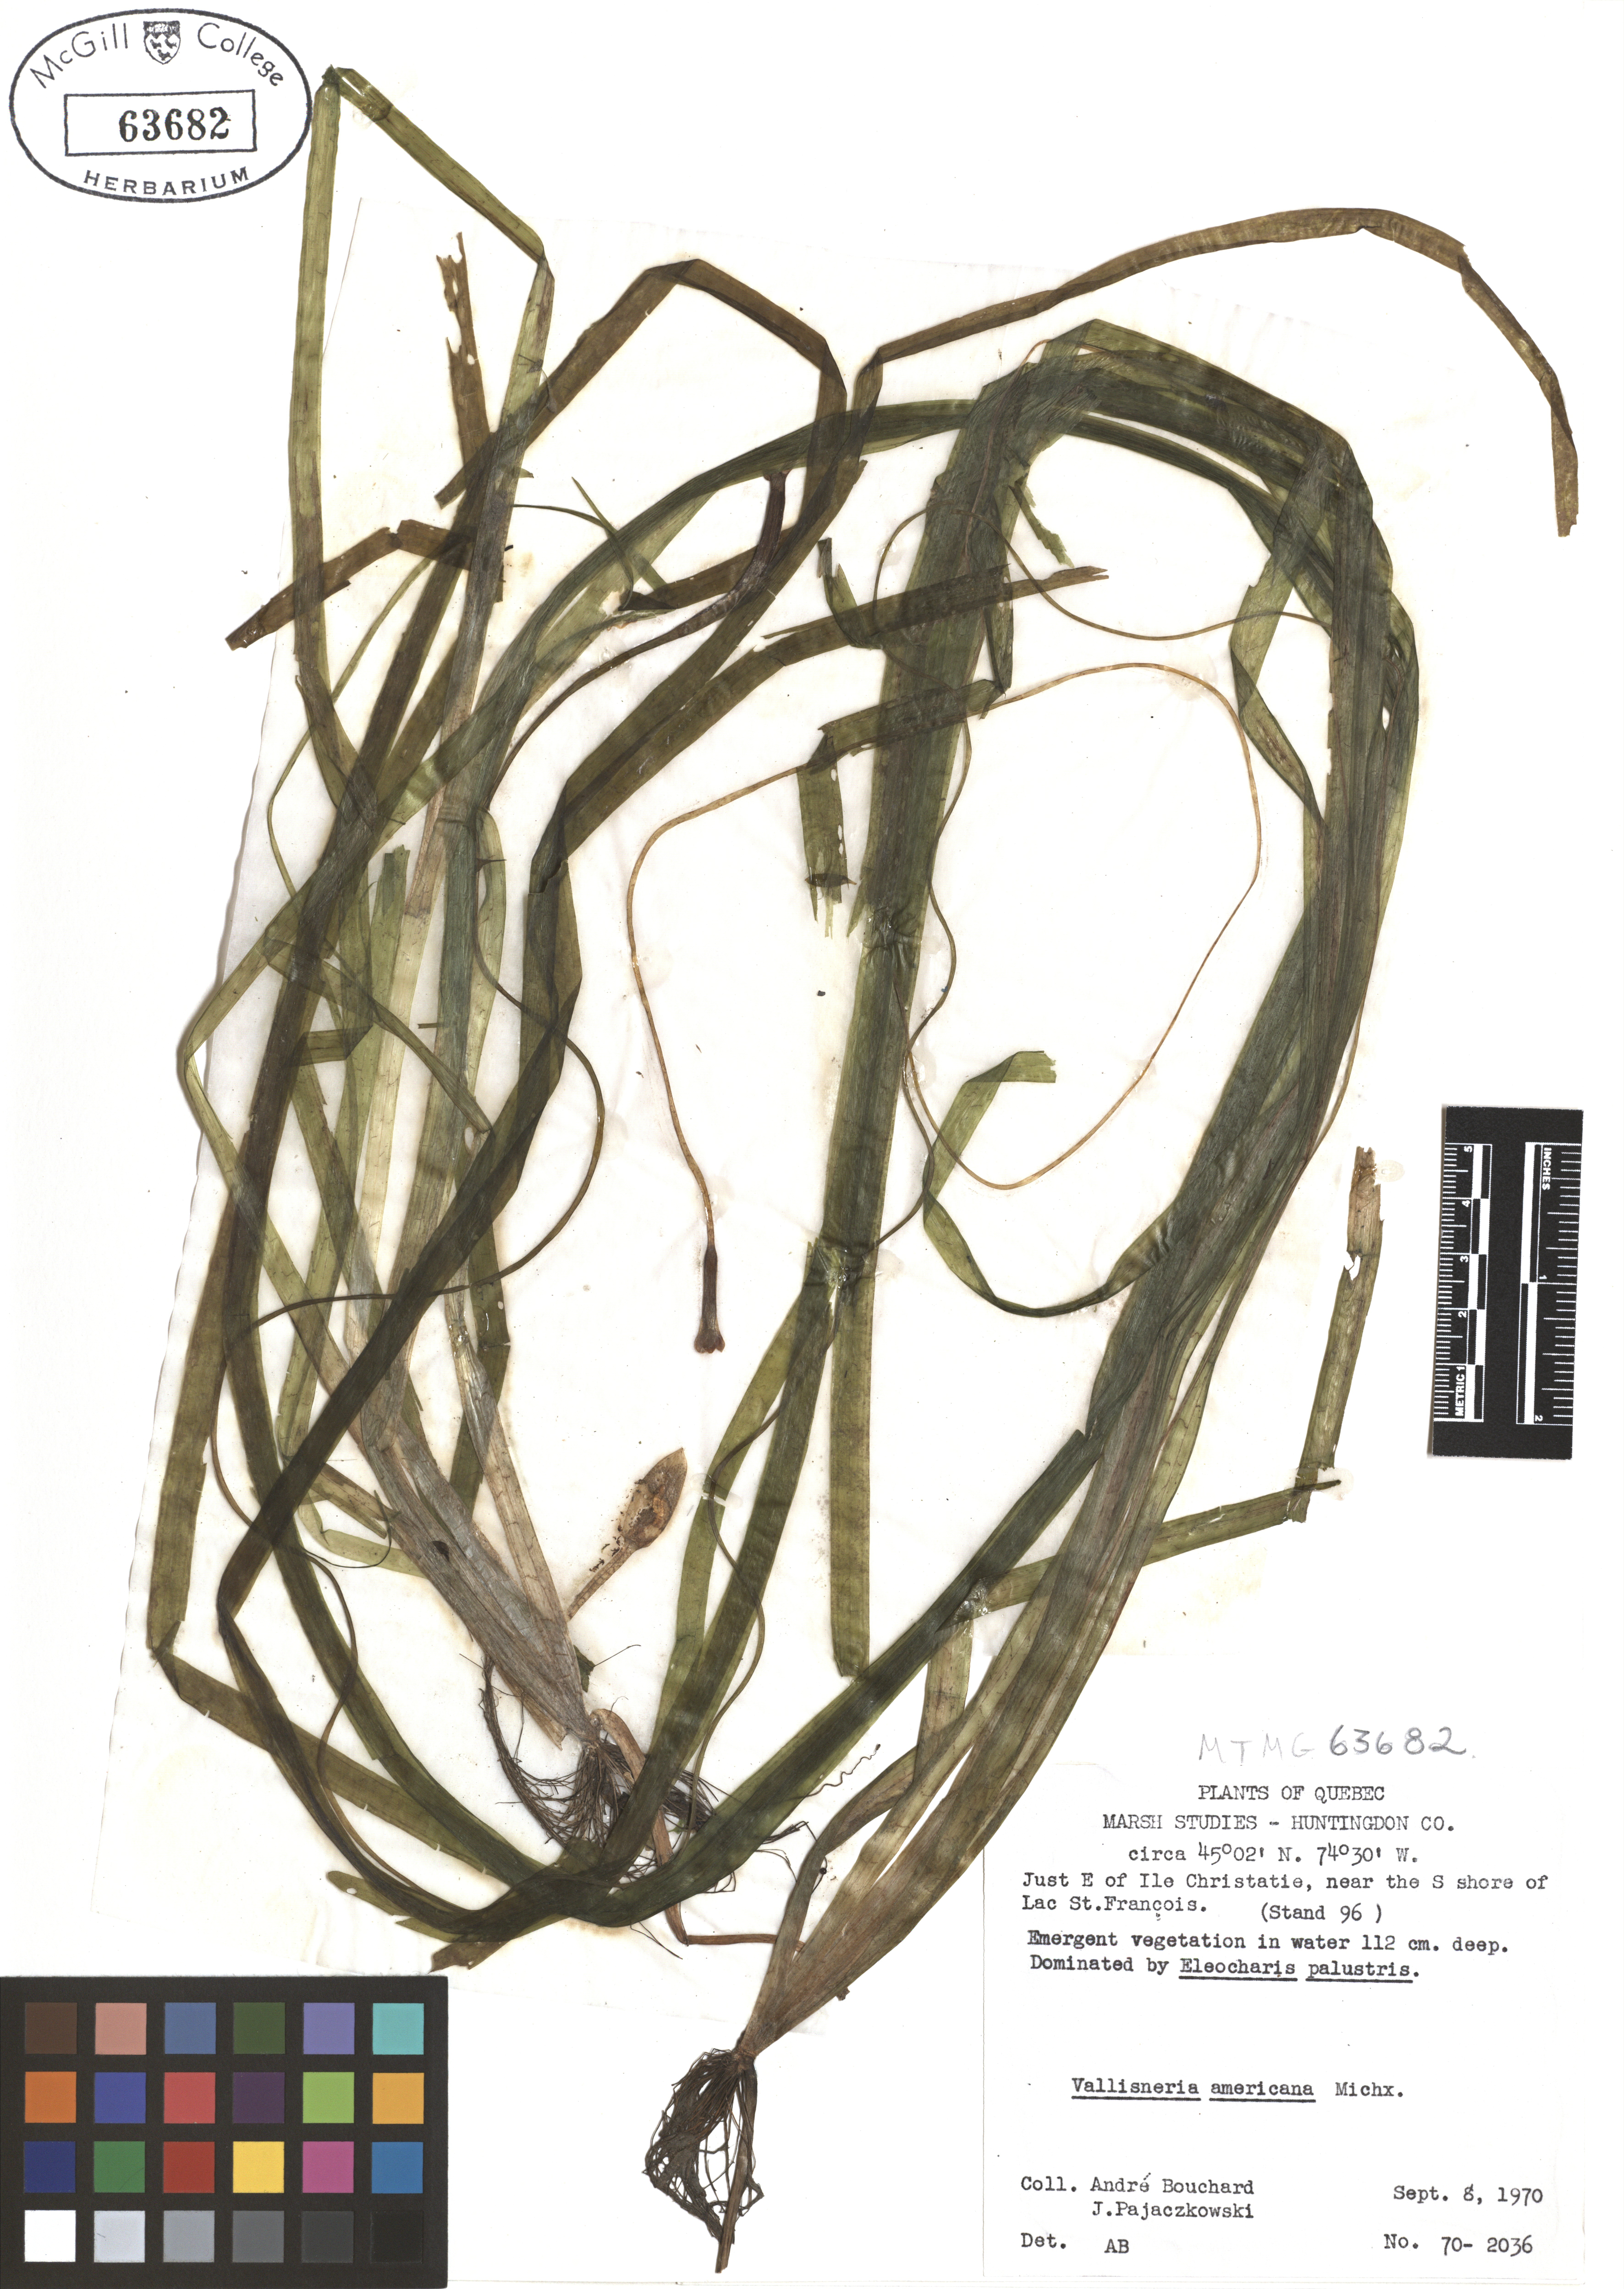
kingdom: Plantae
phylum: Tracheophyta
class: Liliopsida
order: Alismatales
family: Hydrocharitaceae
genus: Vallisneria
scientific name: Vallisneria americana
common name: American eelgrass
